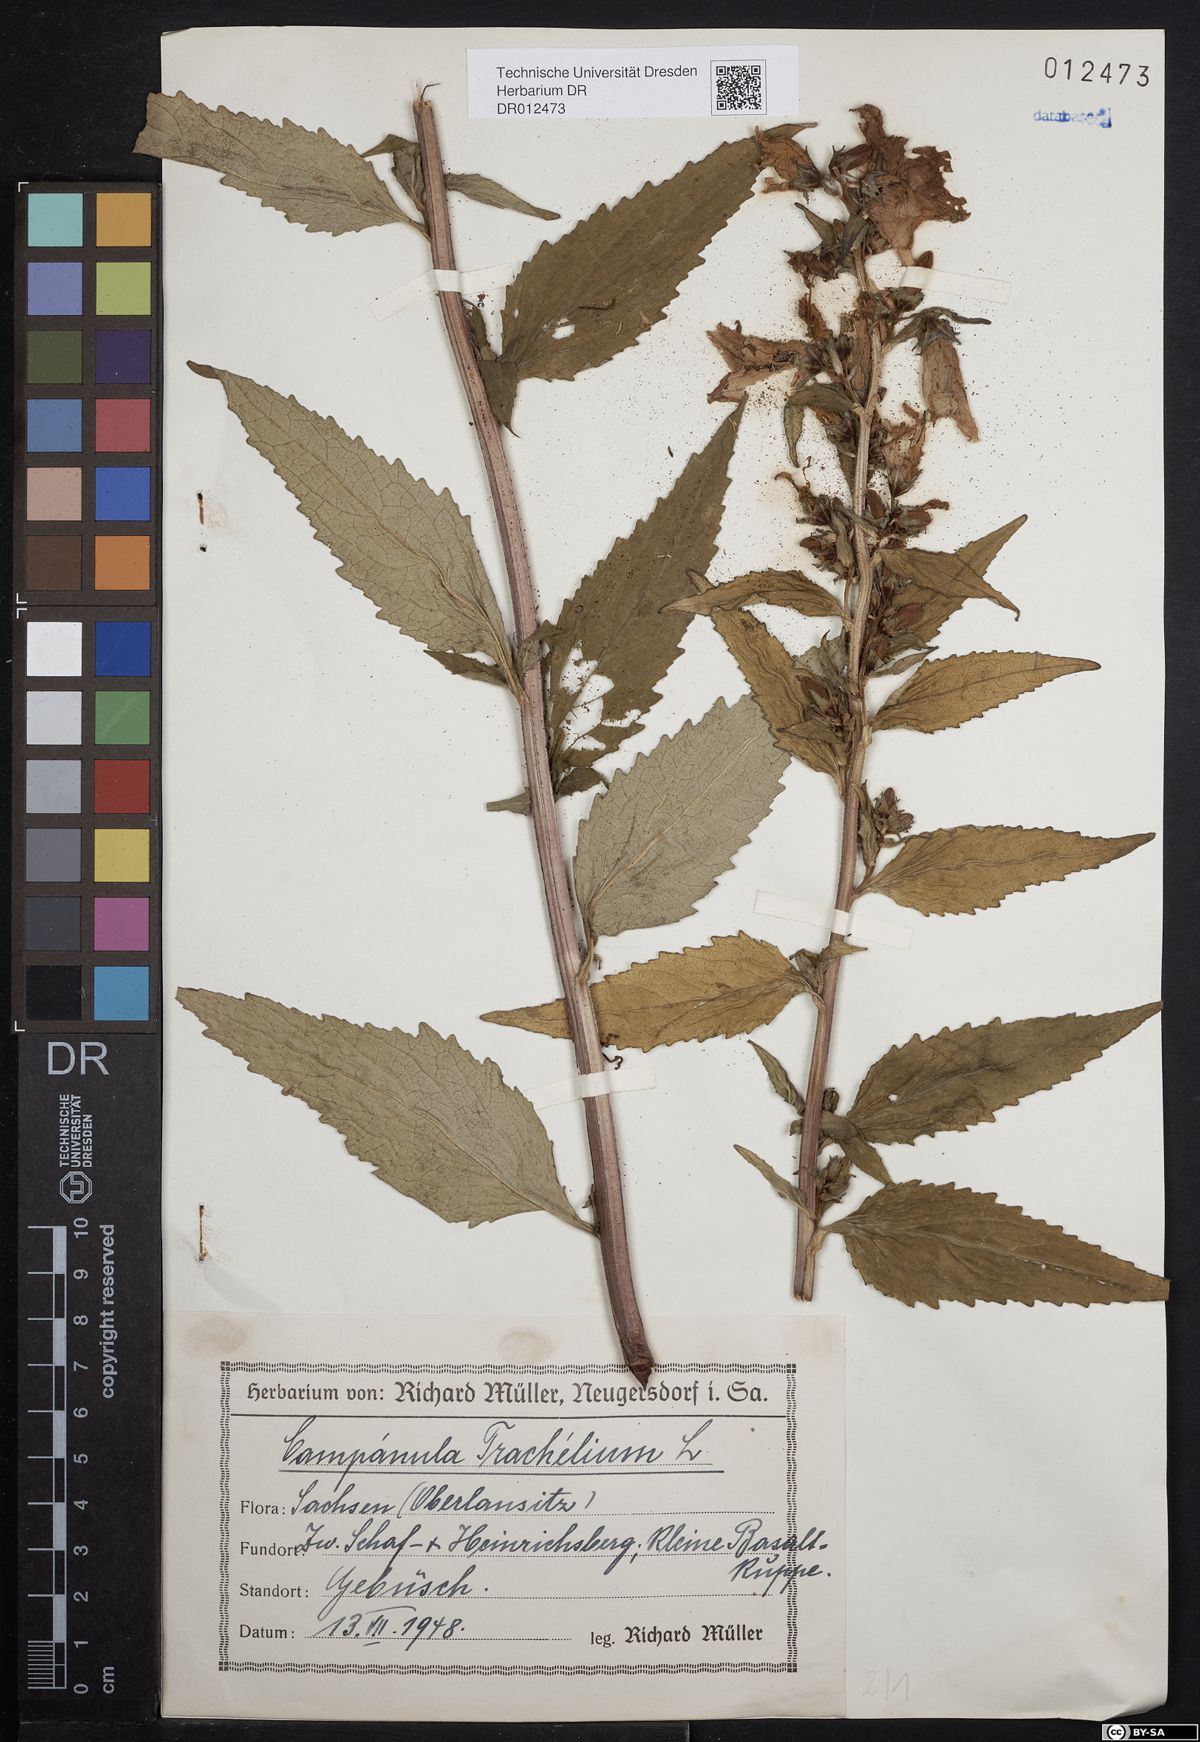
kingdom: Plantae
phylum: Tracheophyta
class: Magnoliopsida
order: Asterales
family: Campanulaceae
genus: Campanula
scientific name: Campanula trachelium
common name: Nettle-leaved bellflower
